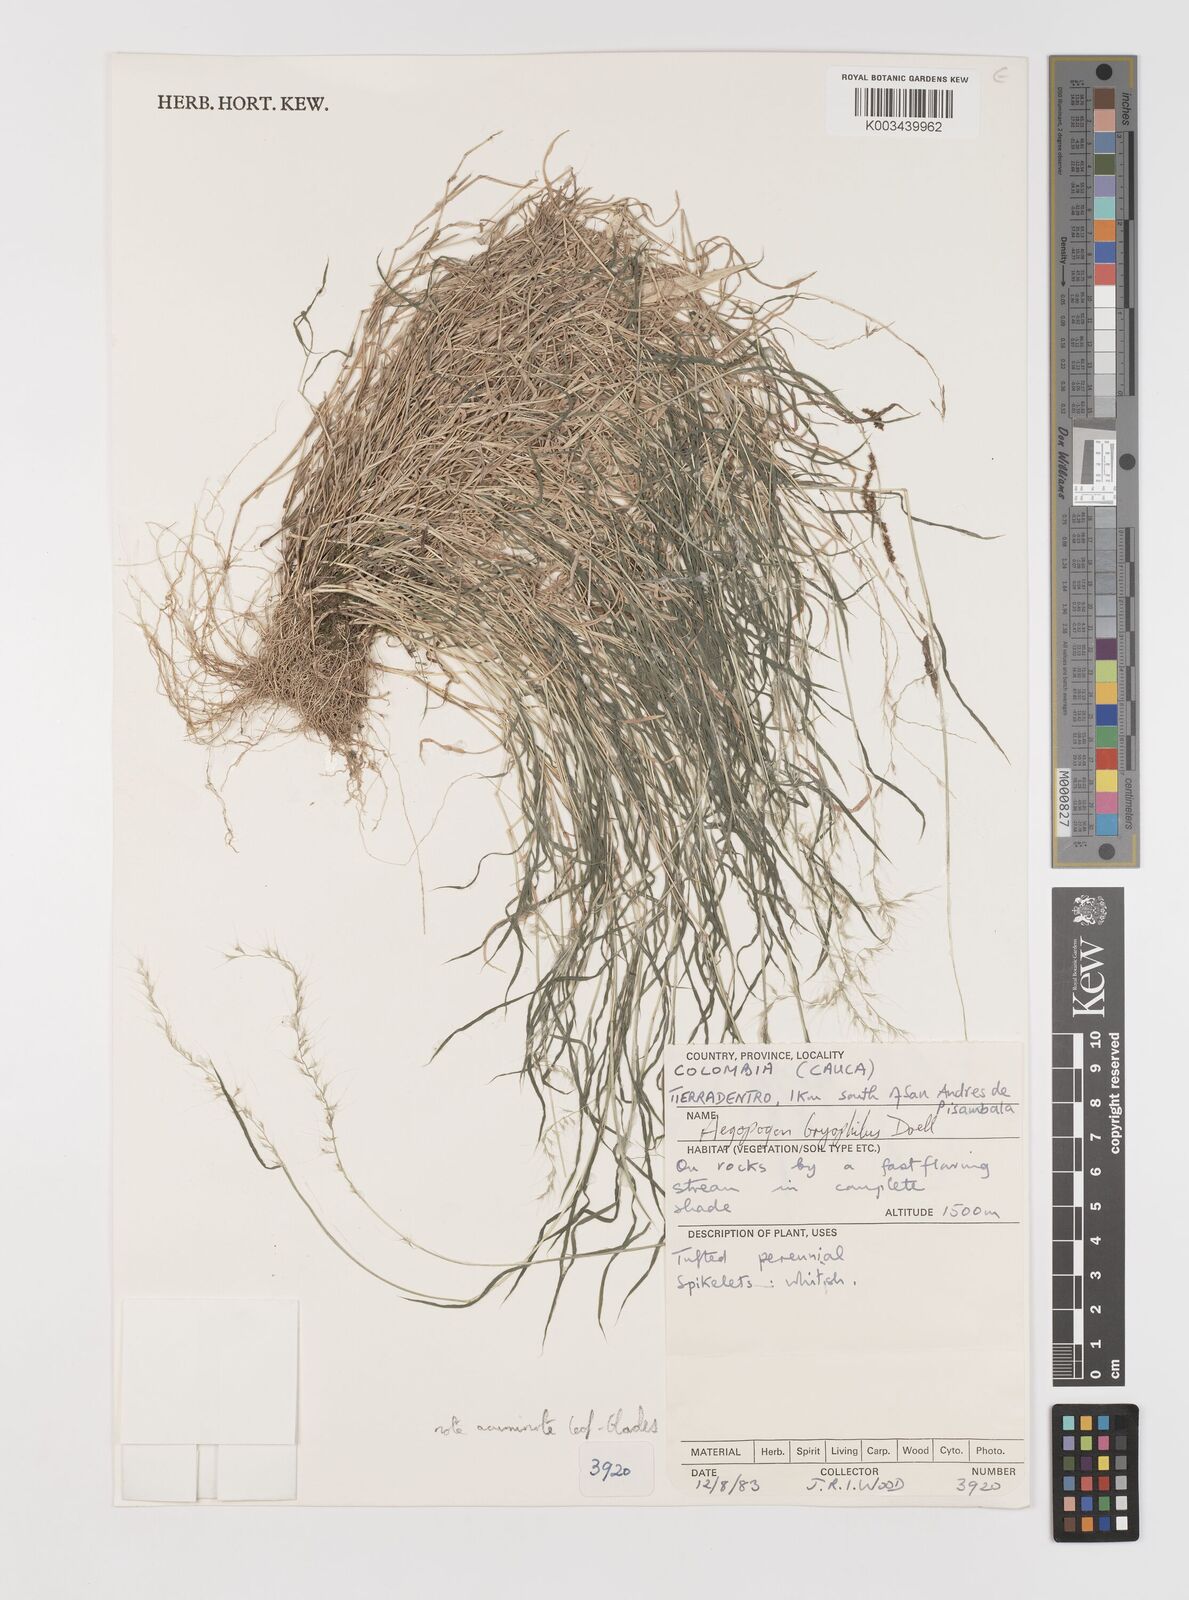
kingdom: Plantae
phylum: Tracheophyta
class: Liliopsida
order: Poales
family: Poaceae
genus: Muhlenbergia
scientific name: Muhlenbergia bryophilus
